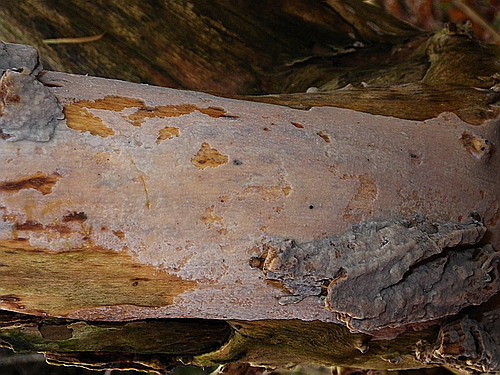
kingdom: Fungi
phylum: Basidiomycota
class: Agaricomycetes
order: Agaricales
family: Radulomycetaceae
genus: Radulomyces
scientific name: Radulomyces confluens
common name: glat naftalinskind
